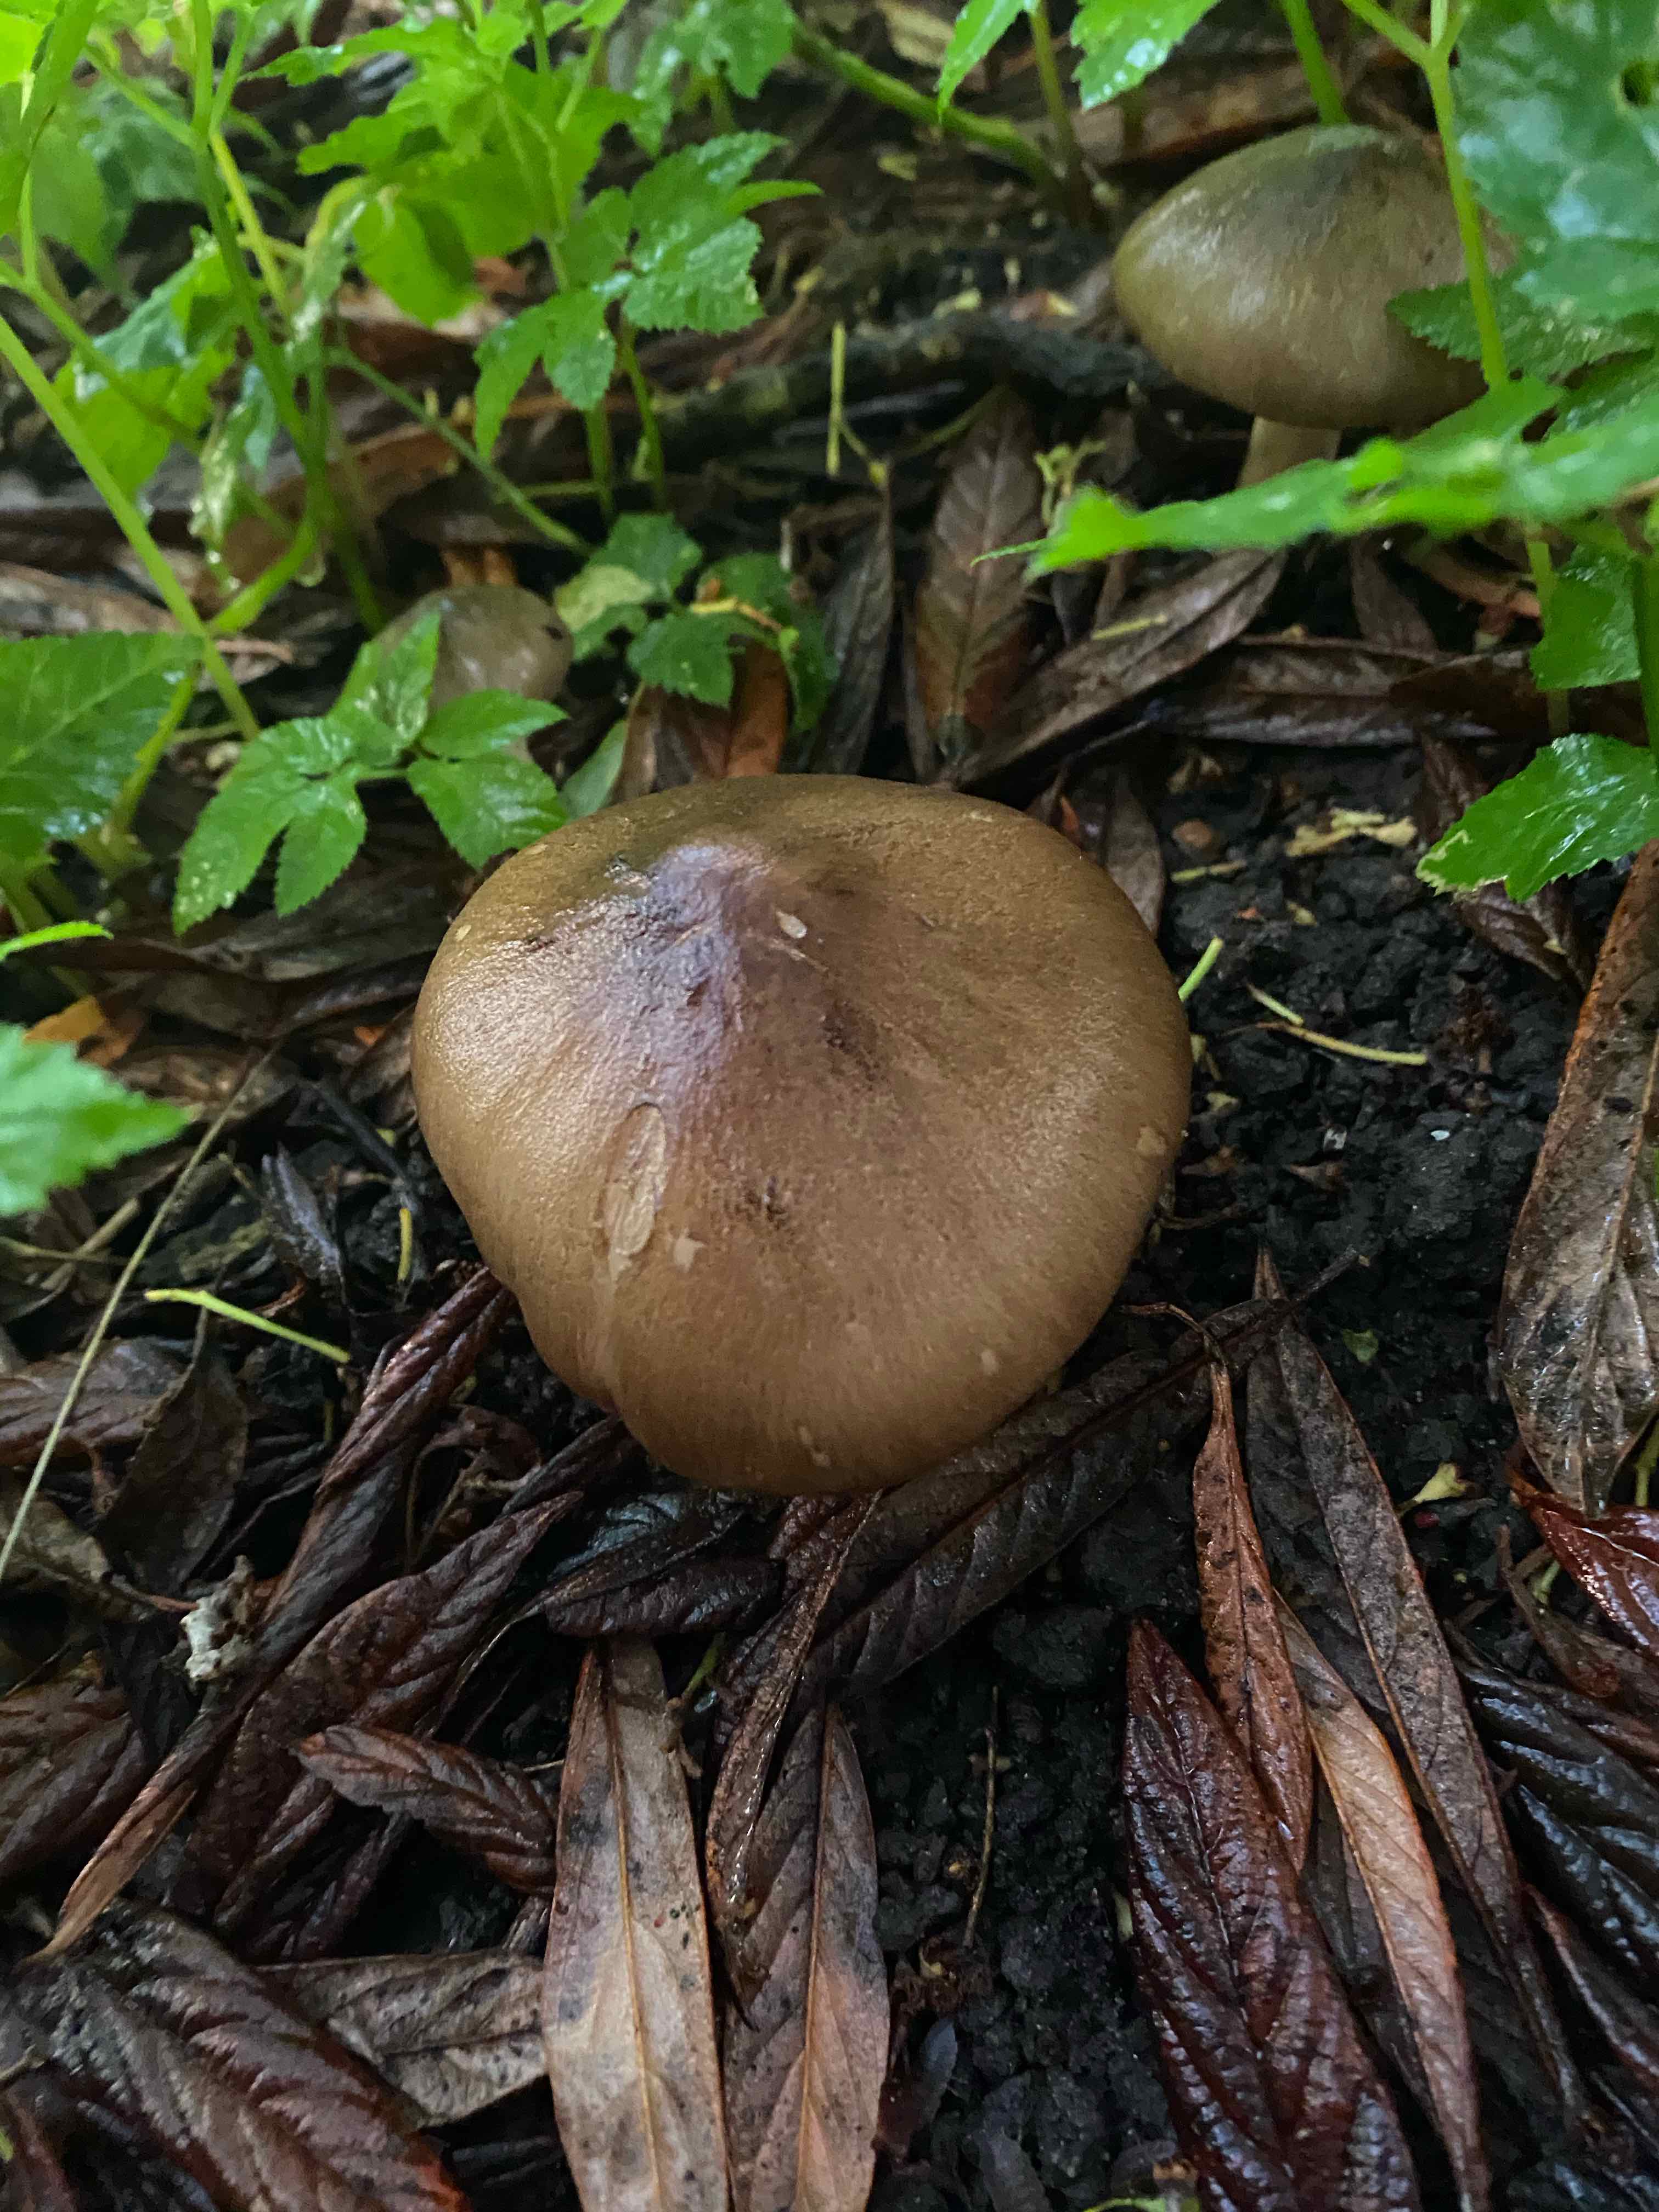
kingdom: Fungi
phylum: Basidiomycota
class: Agaricomycetes
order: Agaricales
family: Tricholomataceae
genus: Megacollybia
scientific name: Megacollybia platyphylla
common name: bredbladet væbnerhat
